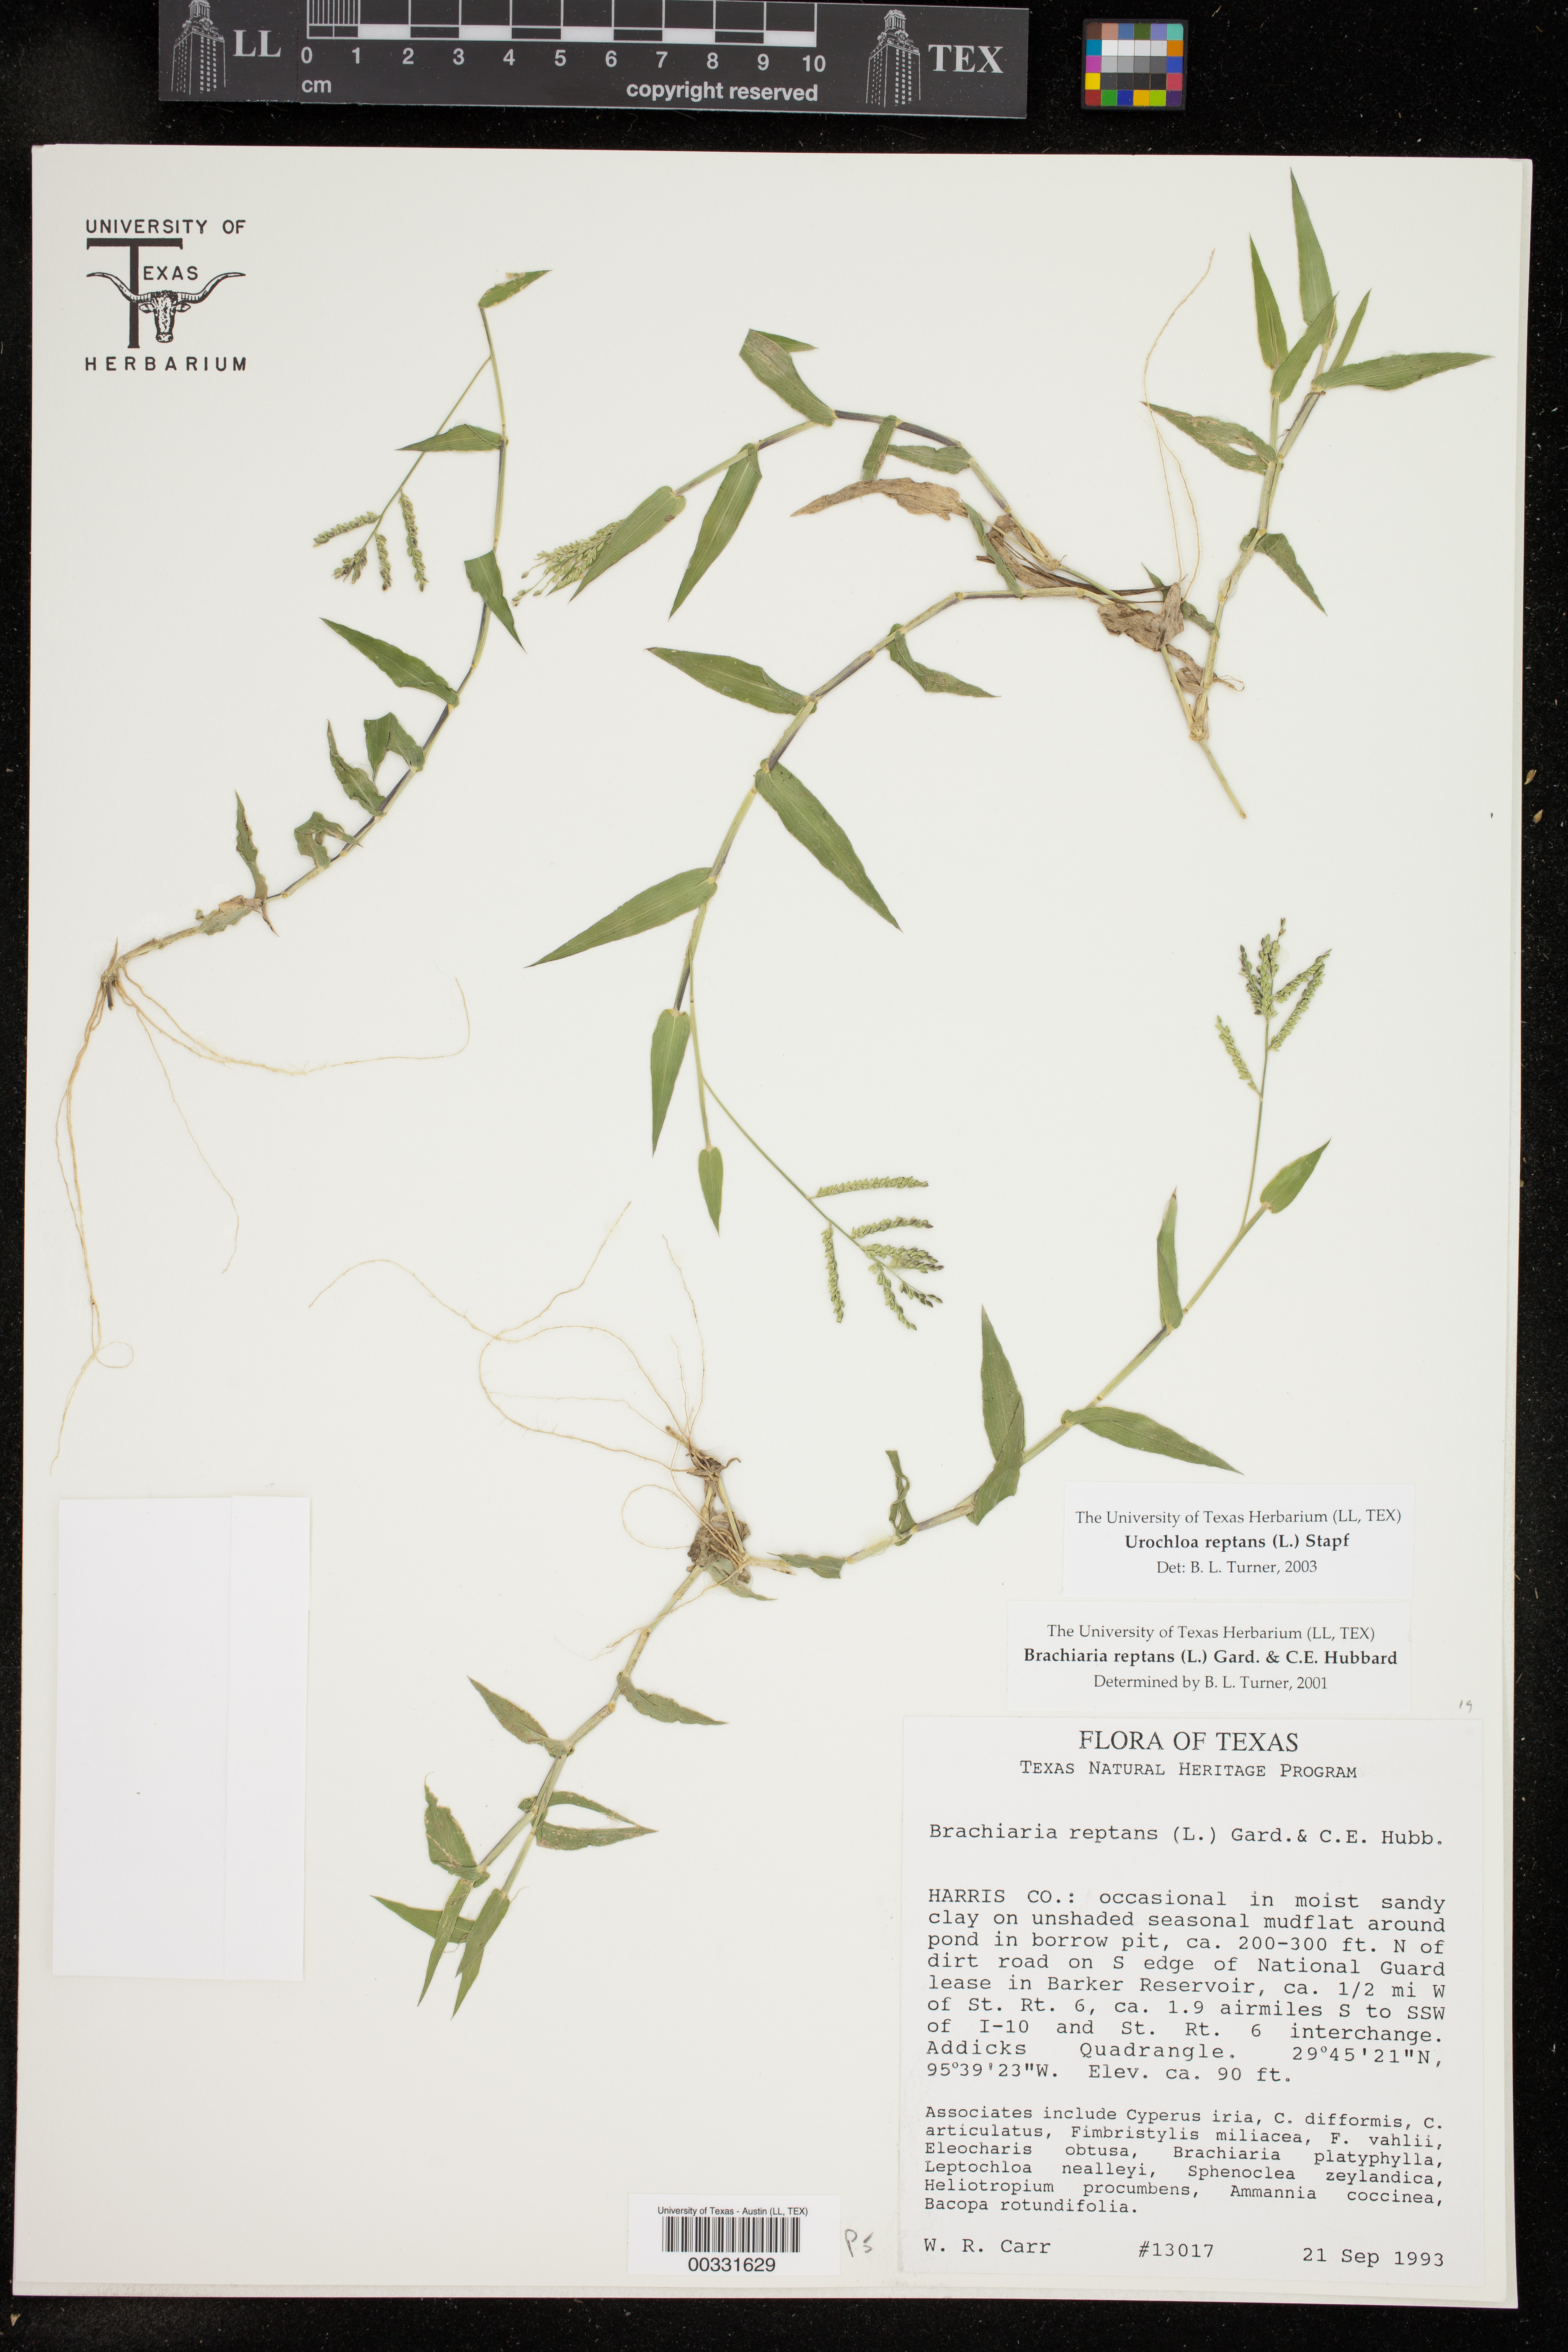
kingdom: Plantae
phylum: Tracheophyta
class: Liliopsida
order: Poales
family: Poaceae
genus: Urochloa
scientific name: Urochloa reptans
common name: Sprawling signalgrass
